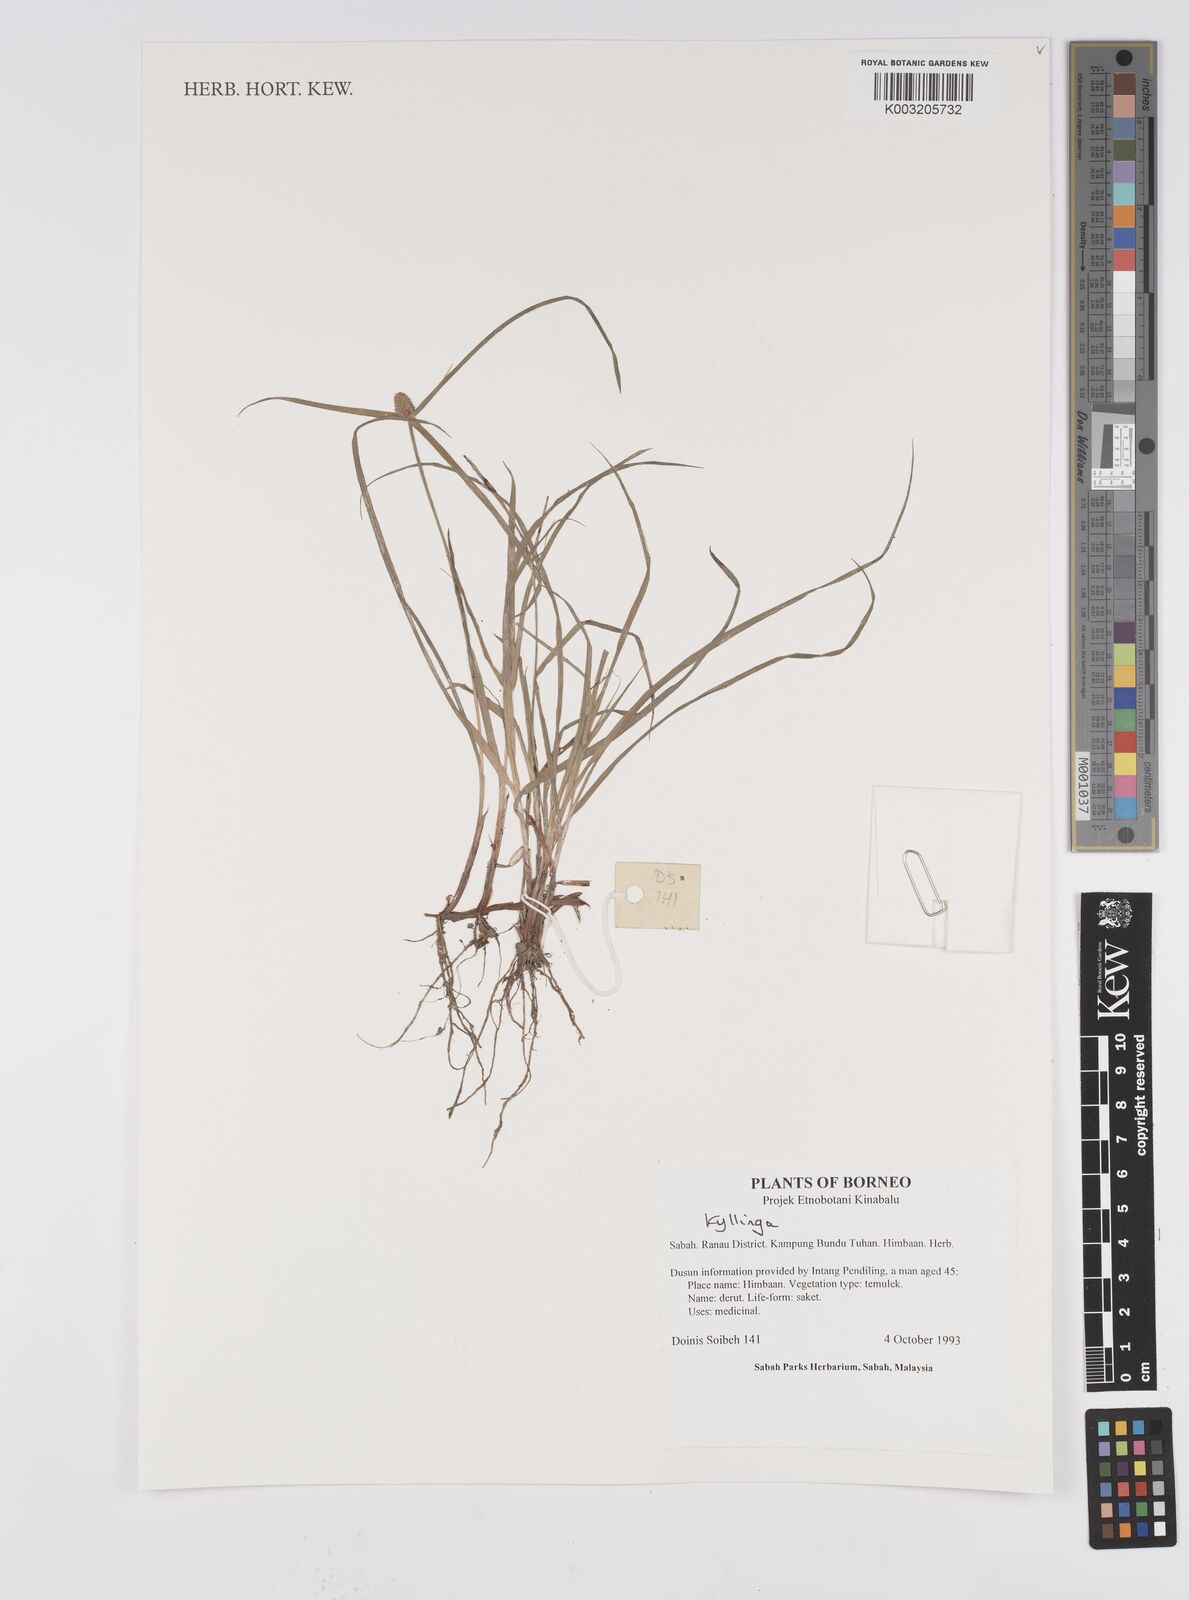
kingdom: Plantae
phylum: Tracheophyta
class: Liliopsida
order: Poales
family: Cyperaceae
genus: Cyperus
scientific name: Cyperus
